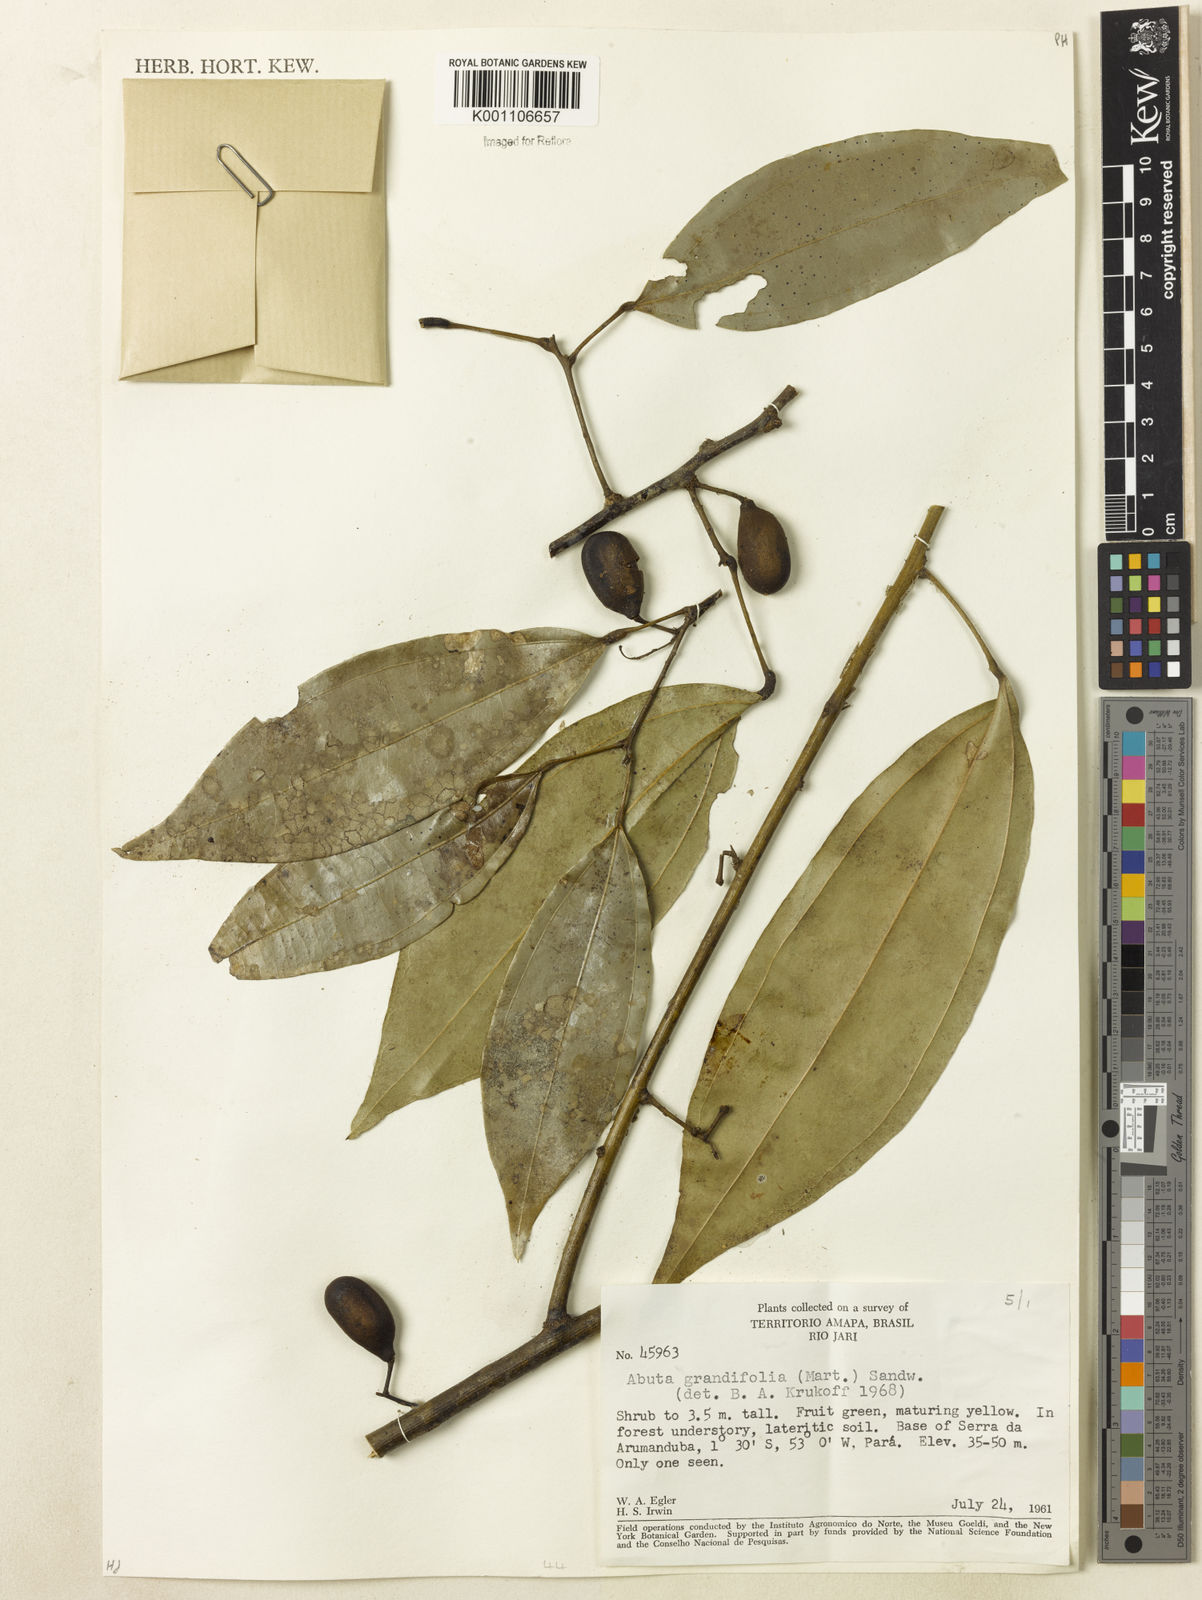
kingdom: Plantae
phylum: Tracheophyta
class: Magnoliopsida
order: Ranunculales
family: Menispermaceae
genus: Abuta
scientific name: Abuta grandifolia
